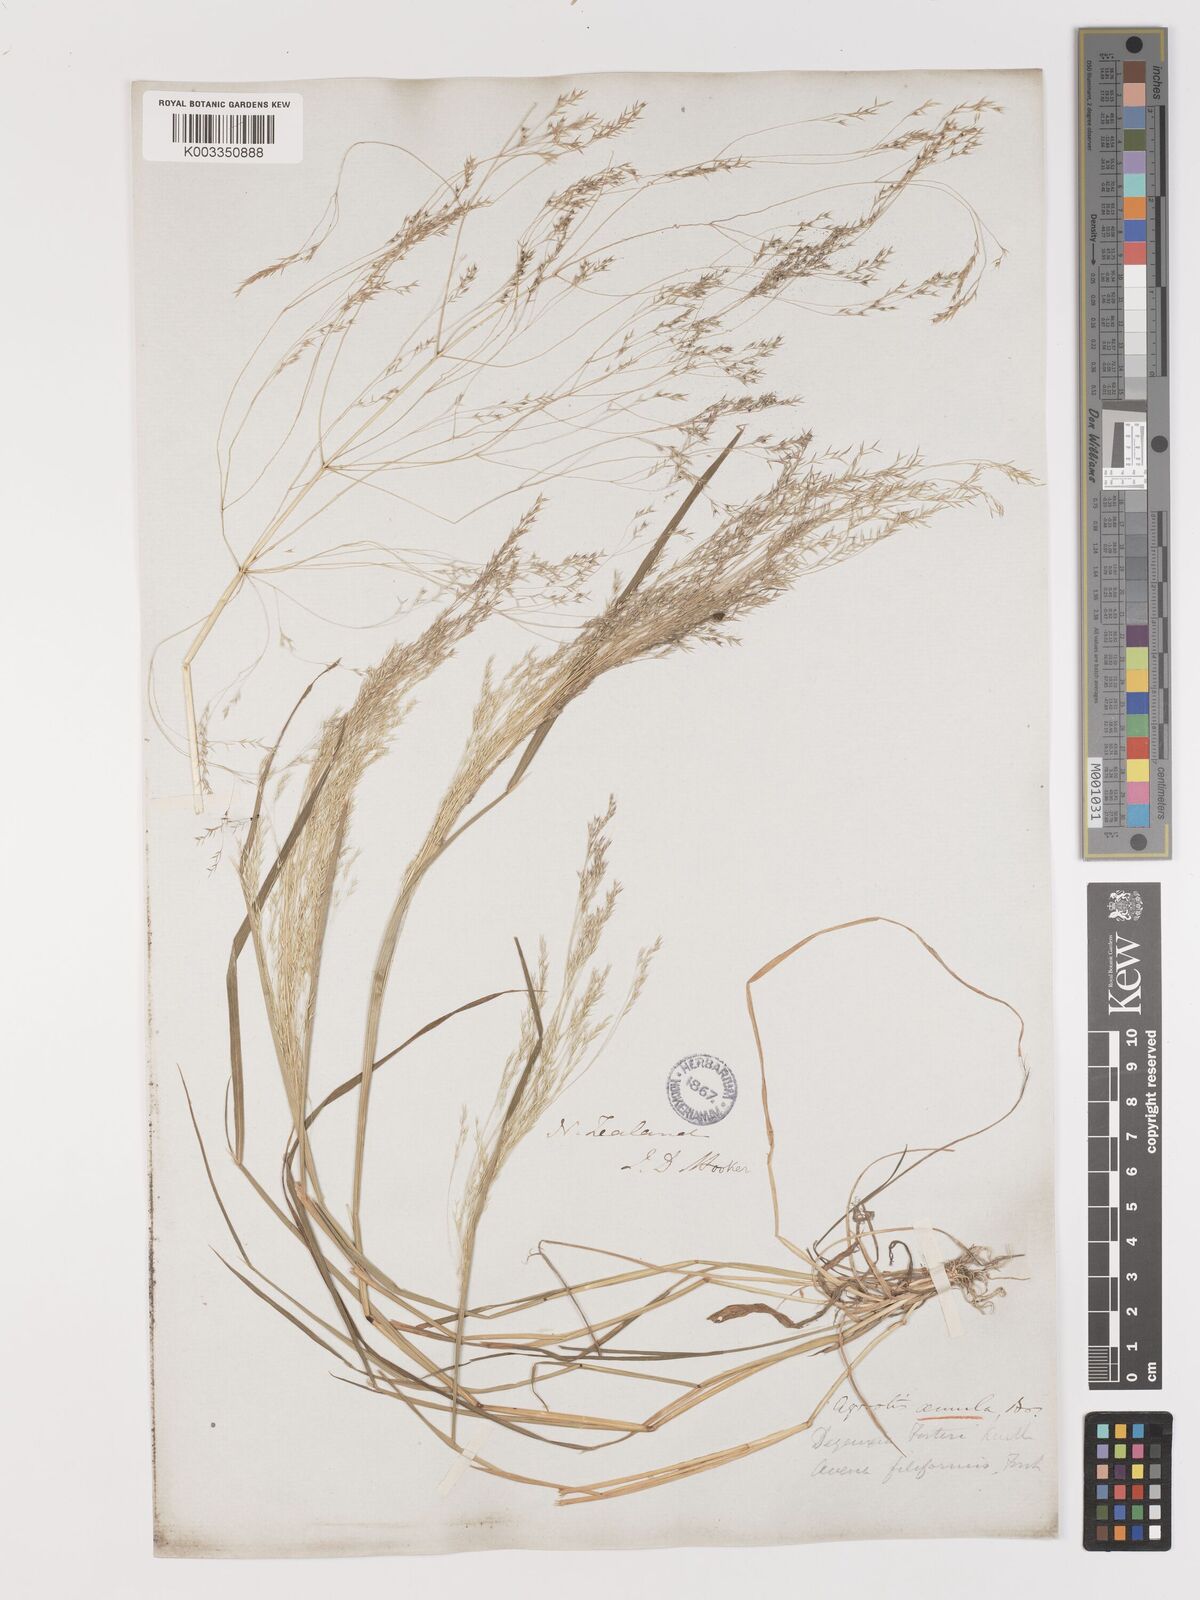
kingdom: Plantae
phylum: Tracheophyta
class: Liliopsida
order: Poales
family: Poaceae
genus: Lachnagrostis
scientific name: Lachnagrostis filiformis
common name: Bentgrass
